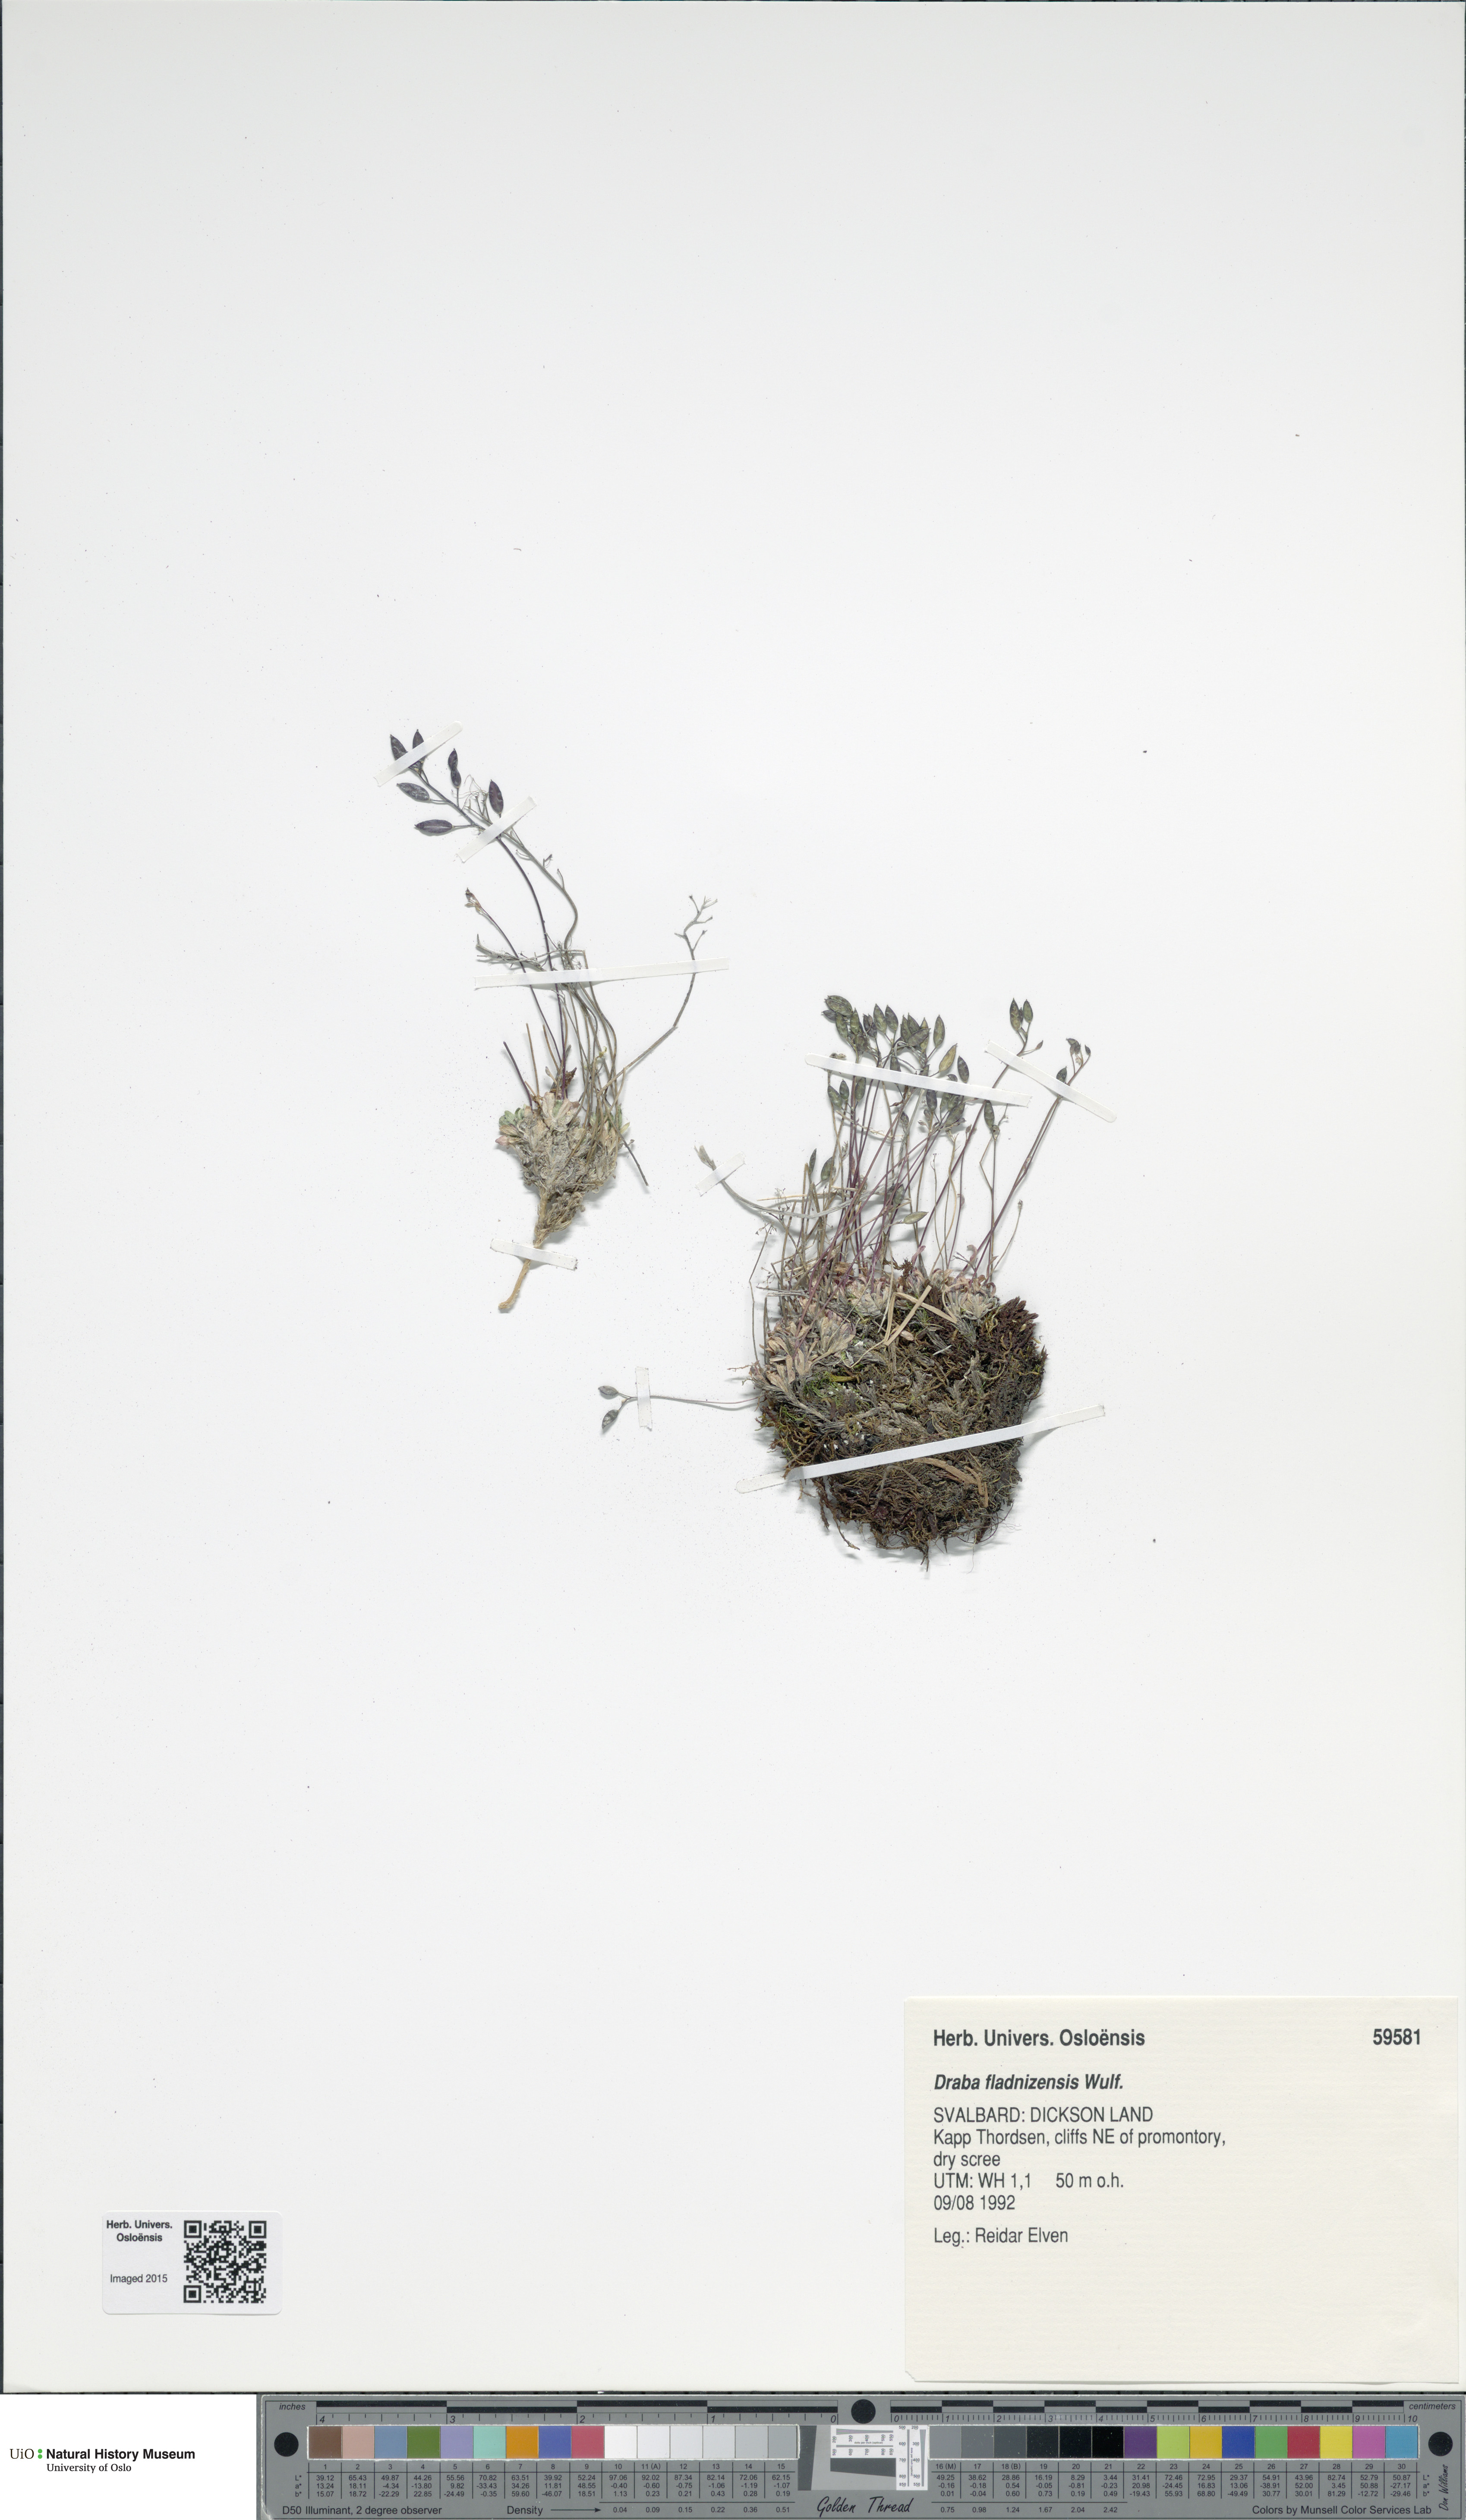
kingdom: Plantae
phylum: Tracheophyta
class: Magnoliopsida
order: Brassicales
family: Brassicaceae
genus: Draba
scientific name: Draba fladnizensis
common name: Austrian draba
